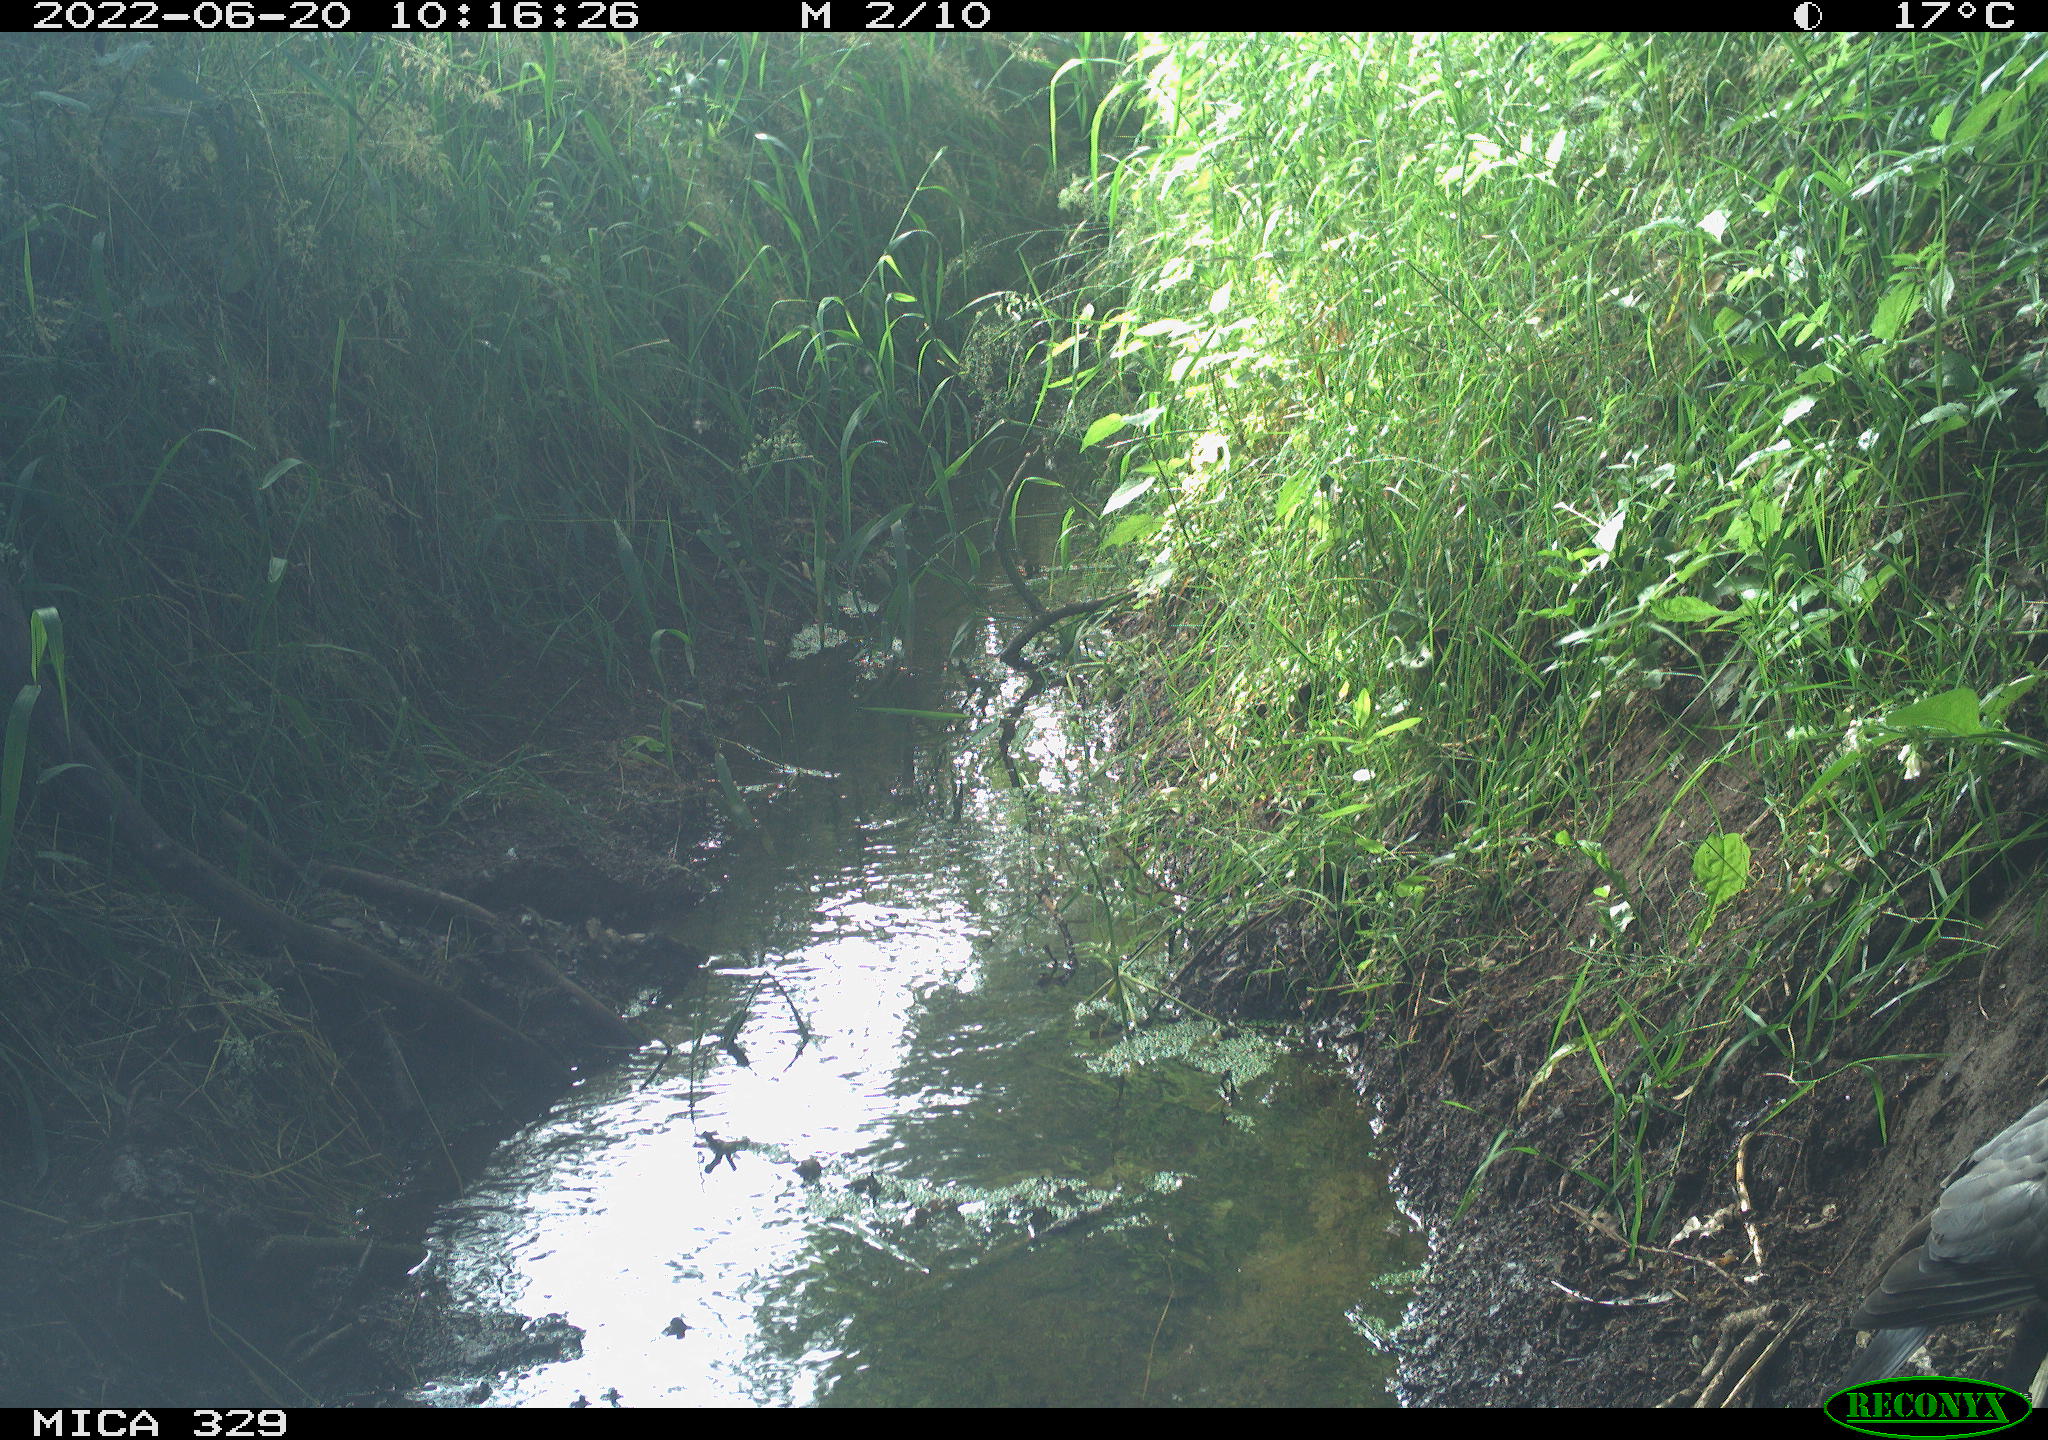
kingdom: Animalia
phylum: Chordata
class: Aves
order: Columbiformes
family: Columbidae
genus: Columba
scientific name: Columba palumbus
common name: Common wood pigeon
